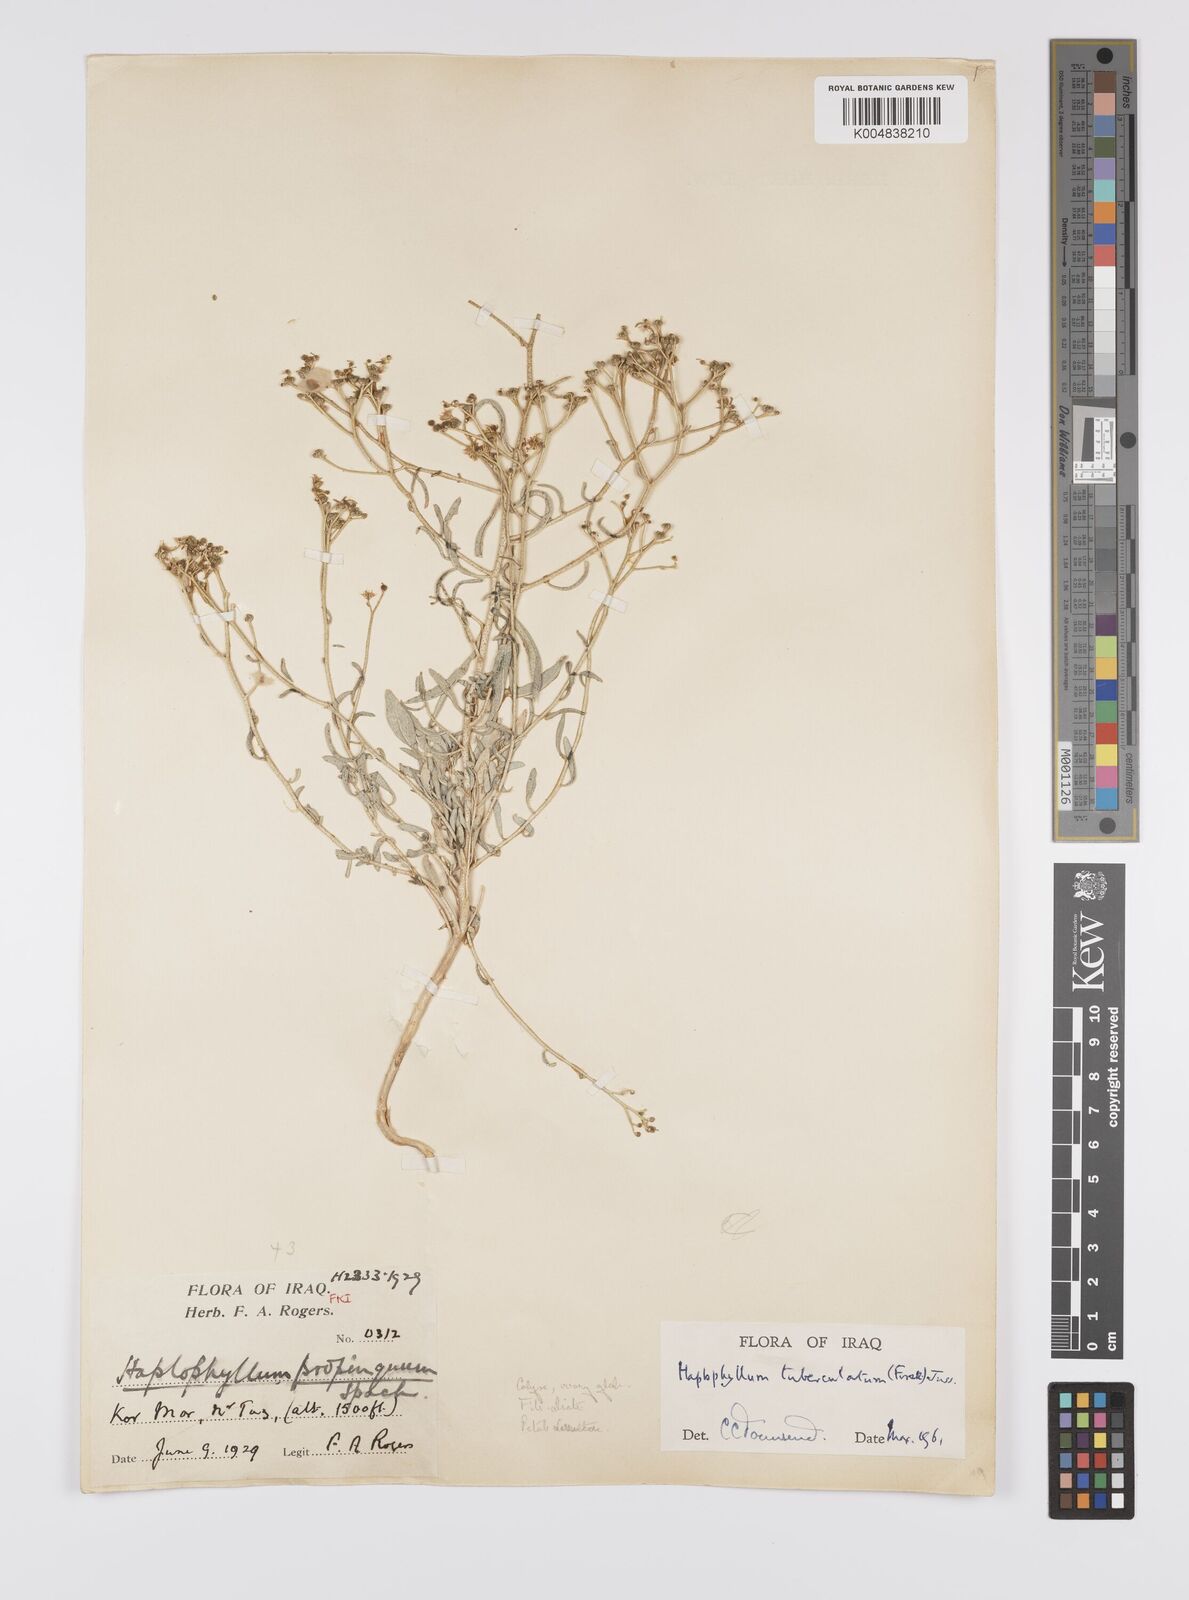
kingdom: Plantae
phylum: Tracheophyta
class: Magnoliopsida
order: Sapindales
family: Rutaceae
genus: Haplophyllum
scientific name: Haplophyllum tuberculatum
